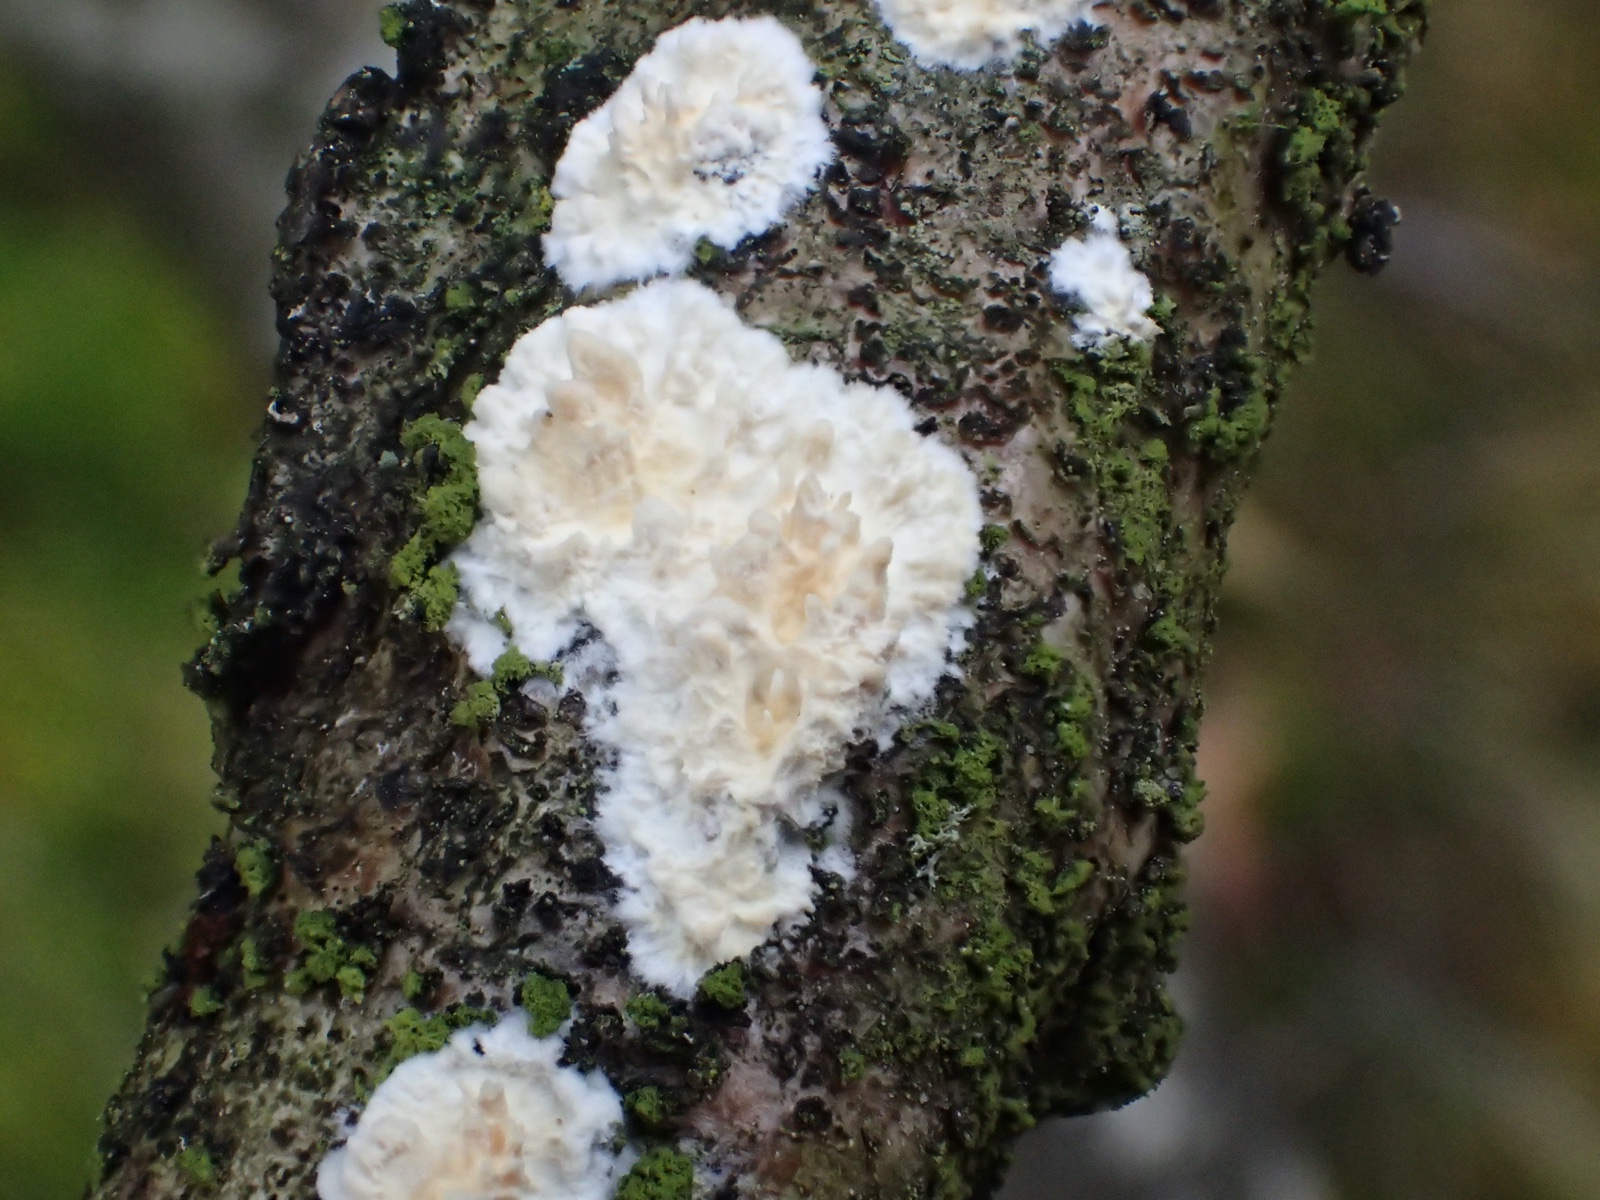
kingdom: Fungi
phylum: Basidiomycota
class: Agaricomycetes
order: Hymenochaetales
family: Schizoporaceae
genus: Xylodon
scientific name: Xylodon radula
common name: grovtandet kalkskind
